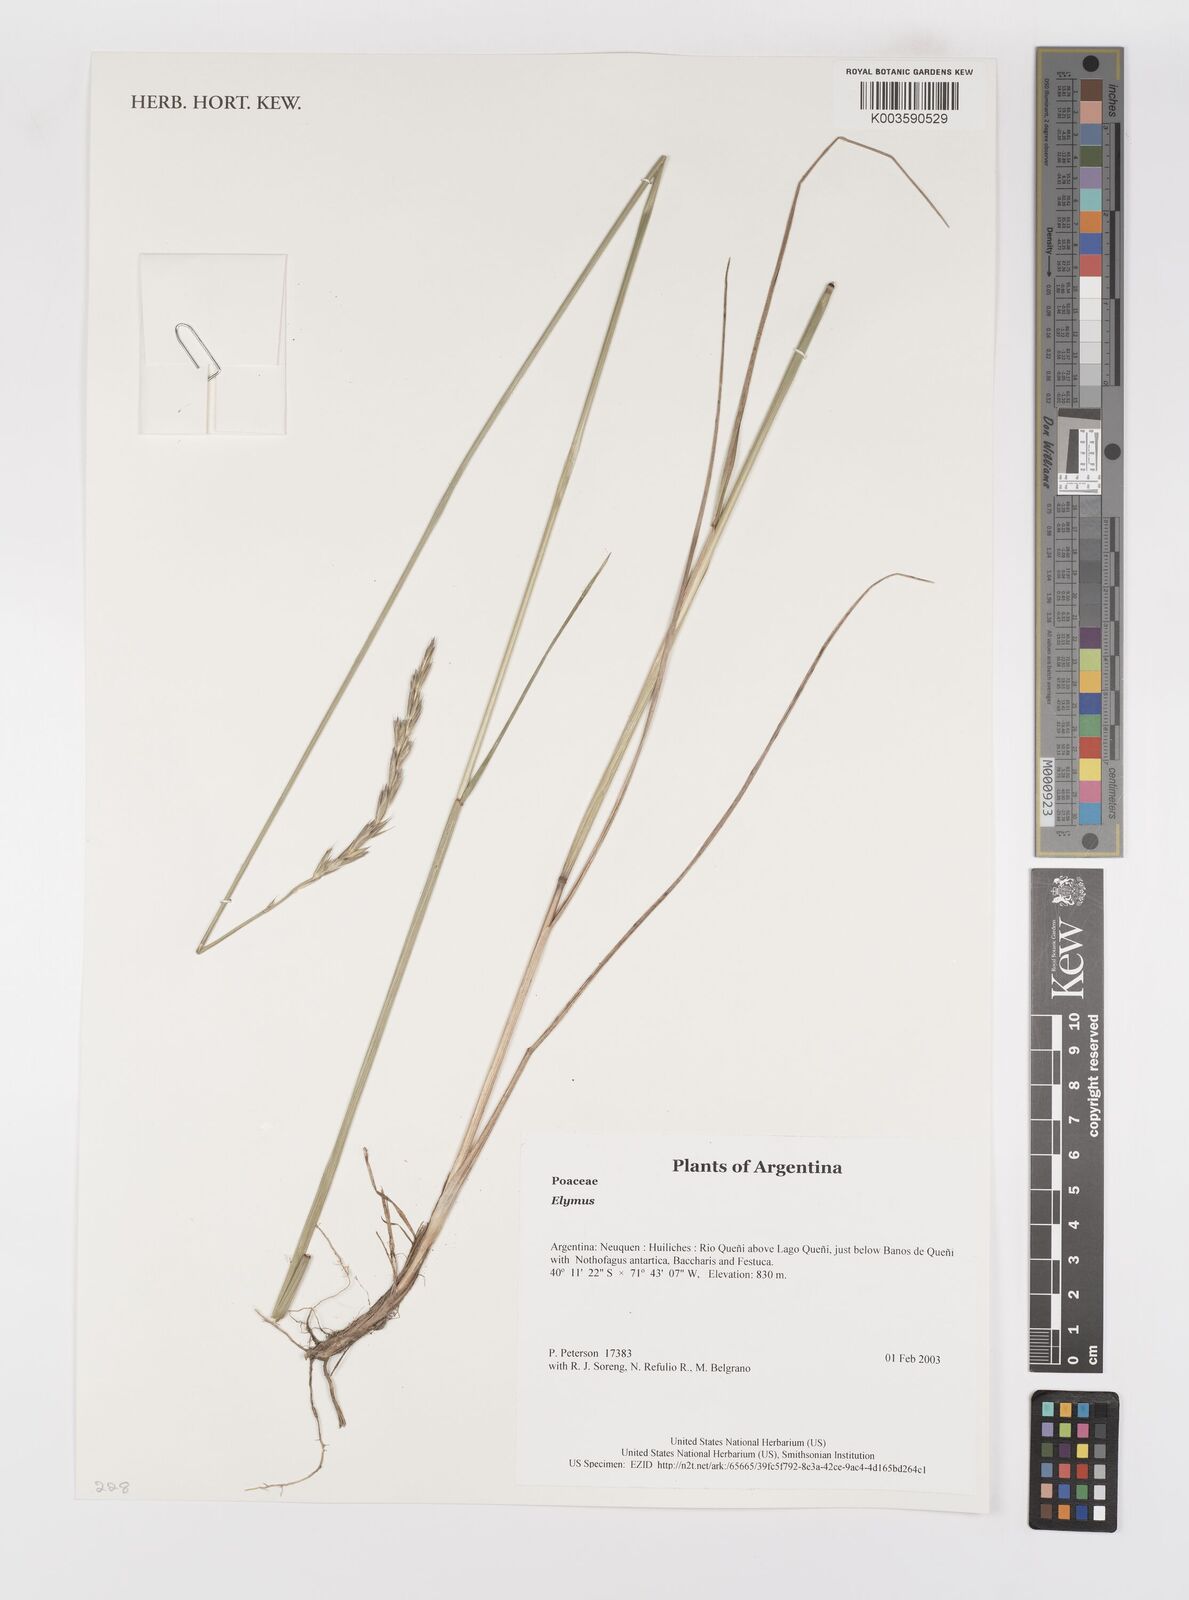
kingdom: Plantae
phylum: Tracheophyta
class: Liliopsida
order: Poales
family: Poaceae
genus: Elymus
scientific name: Elymus
